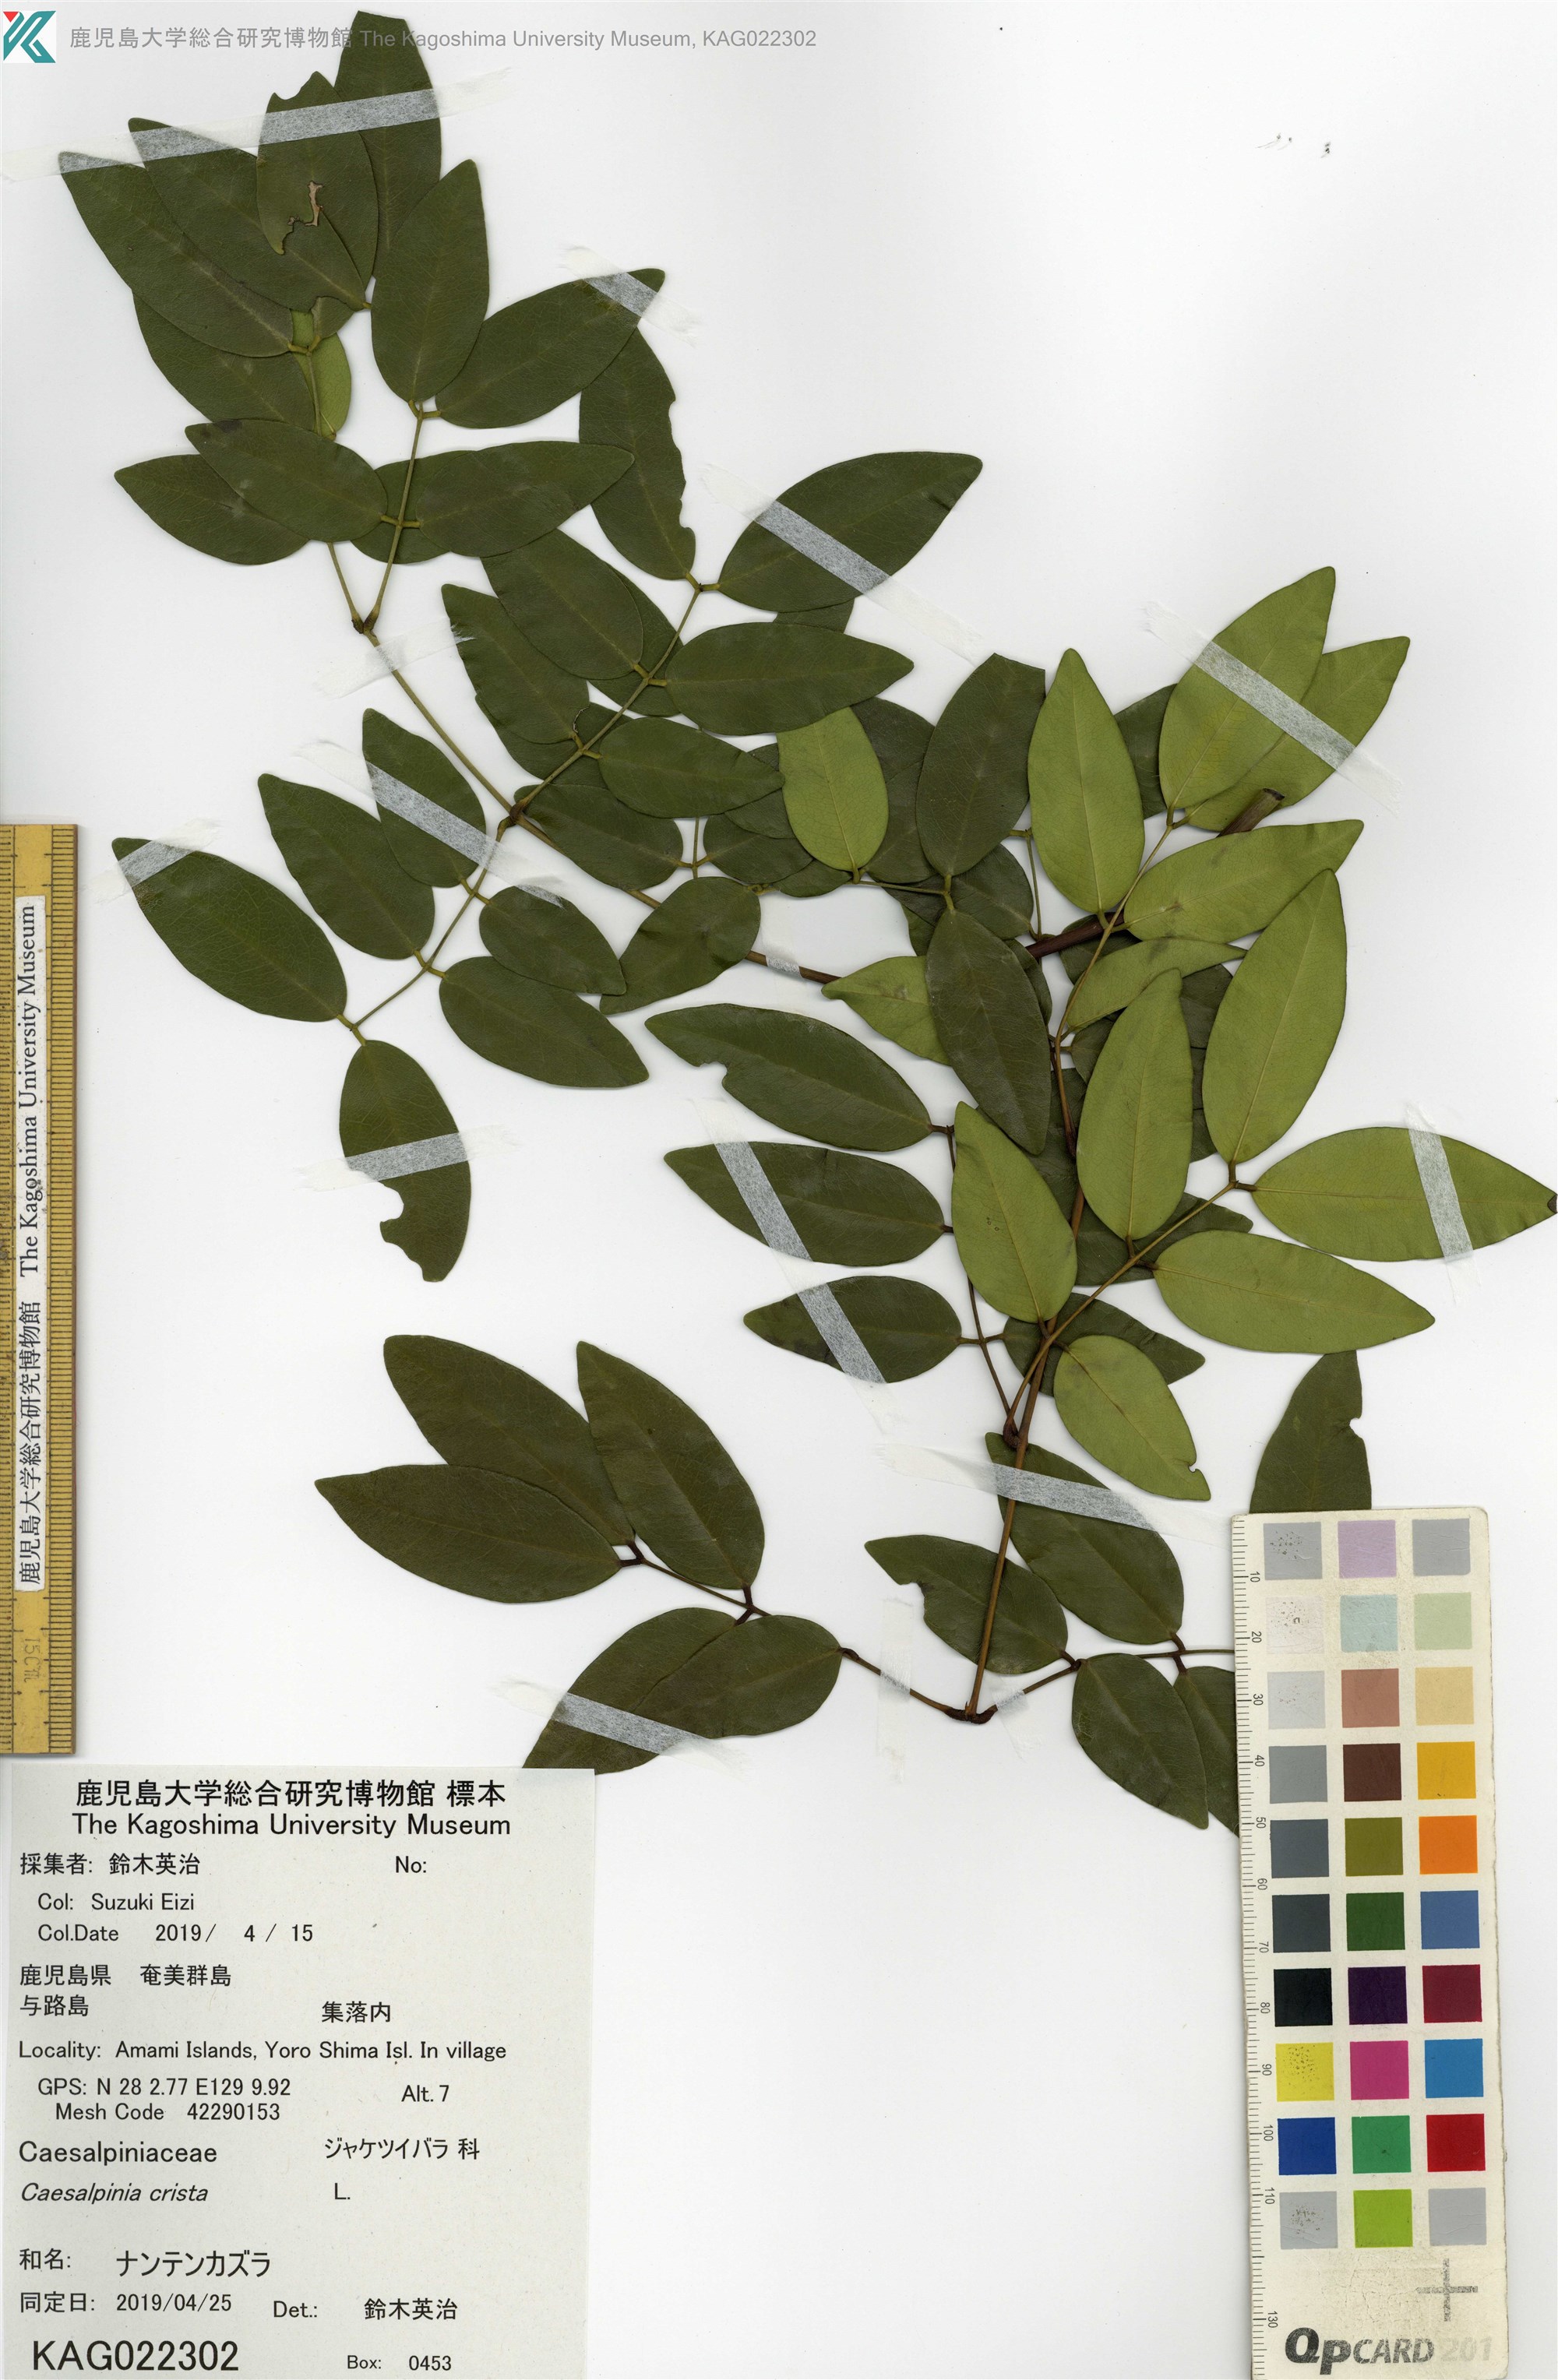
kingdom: Plantae
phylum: Tracheophyta
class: Magnoliopsida
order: Fabales
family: Fabaceae
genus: Caesalpinia
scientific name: Caesalpinia Ticanto crista
